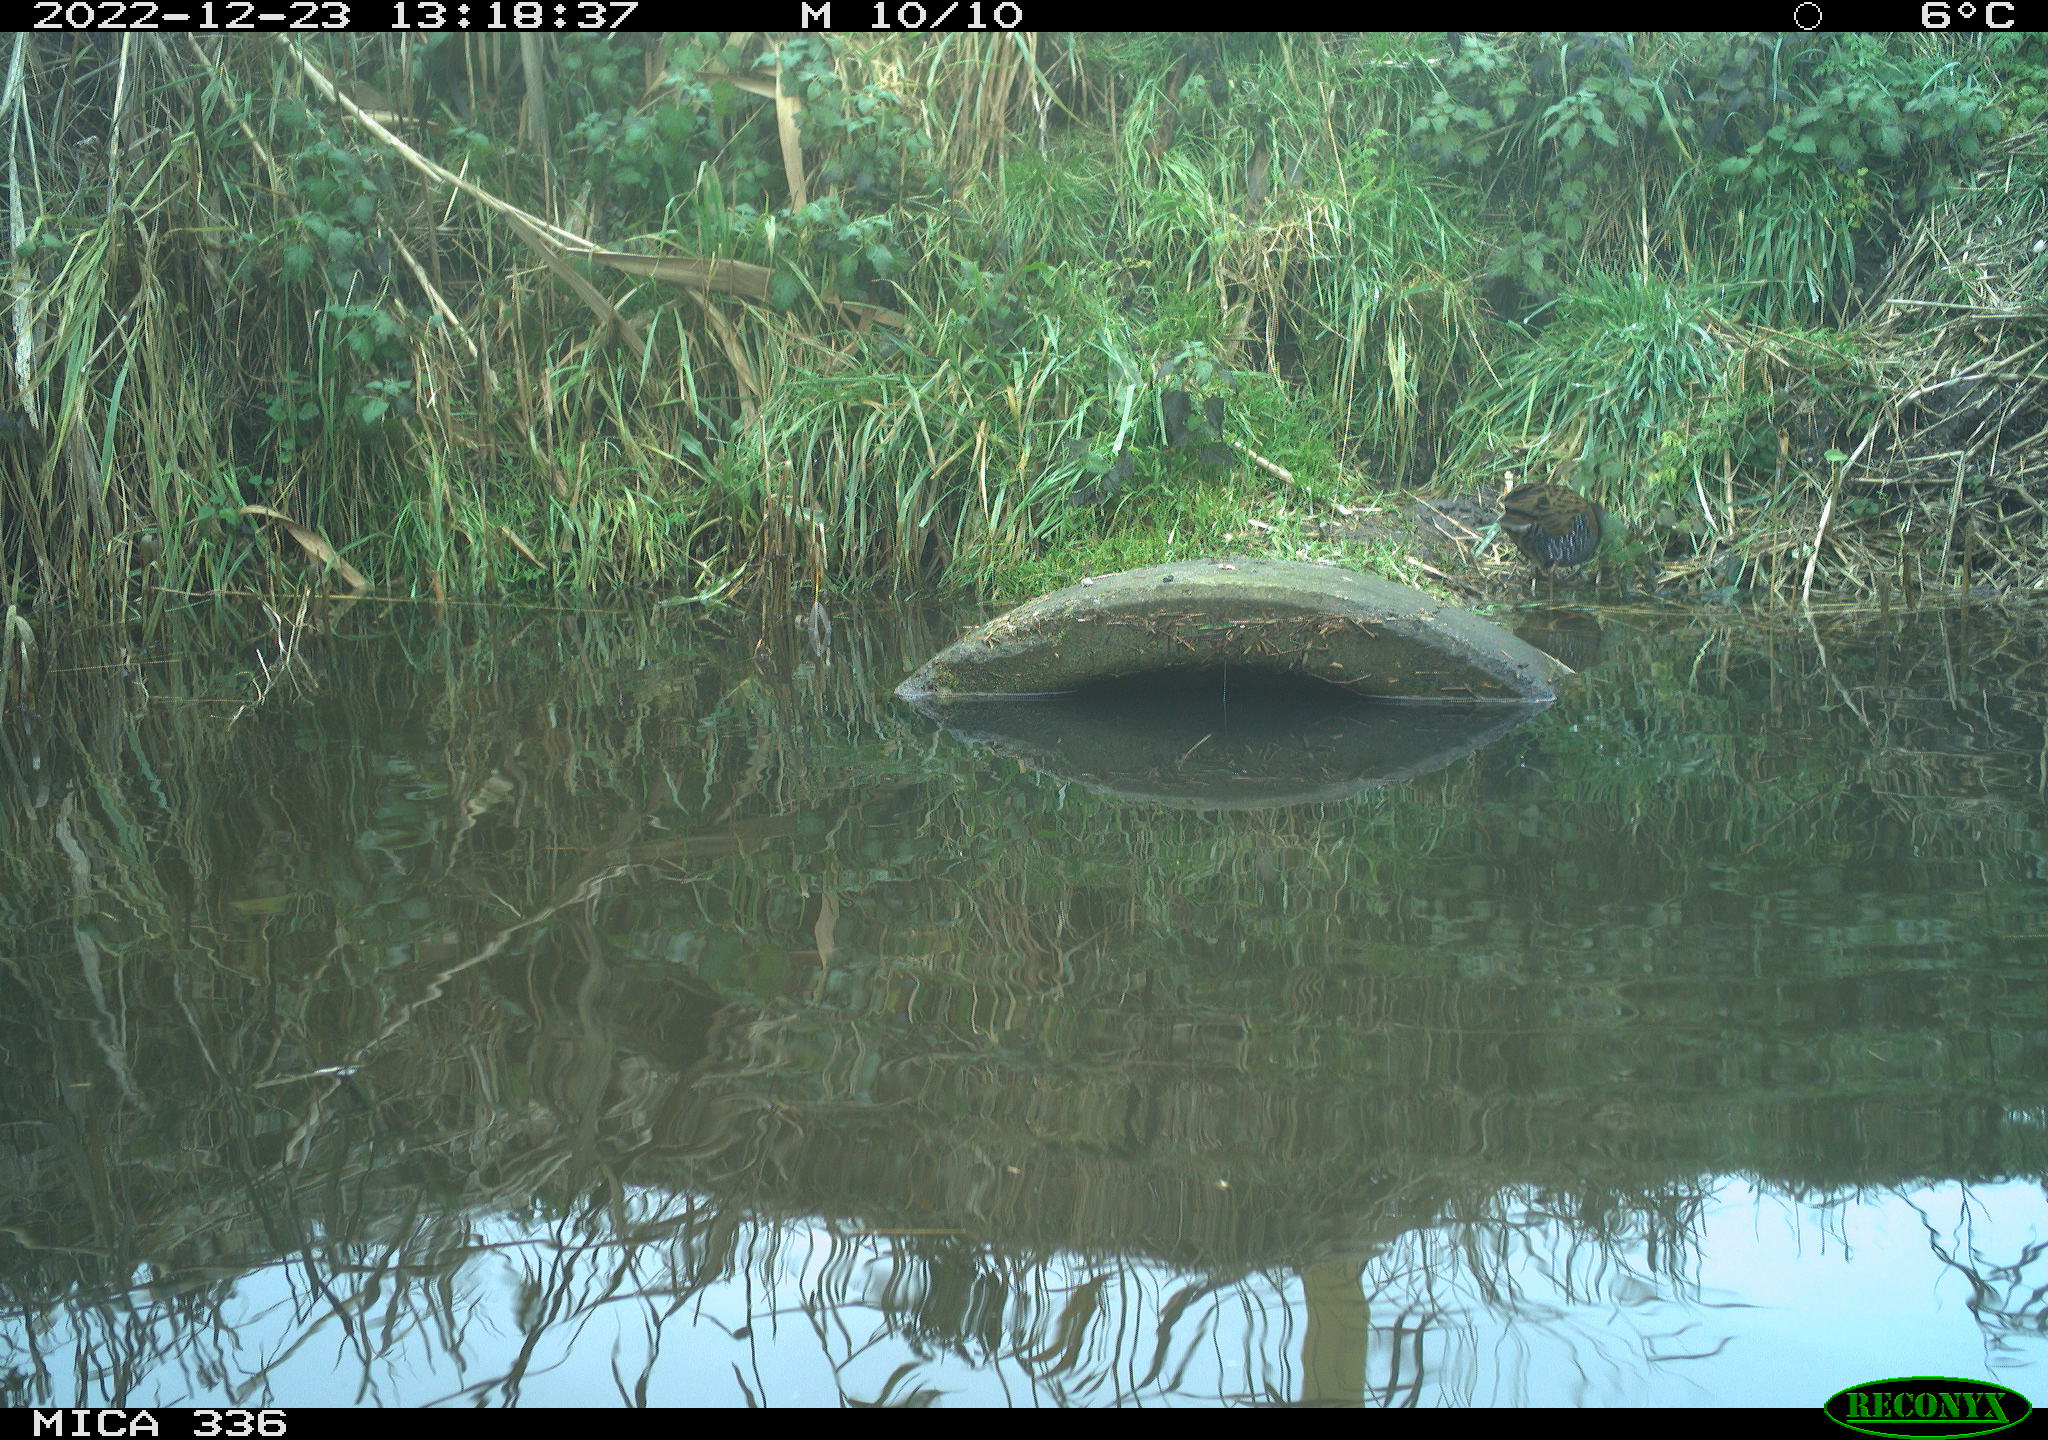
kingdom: Animalia
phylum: Chordata
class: Aves
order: Gruiformes
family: Rallidae
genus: Rallus
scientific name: Rallus aquaticus
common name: Water rail
